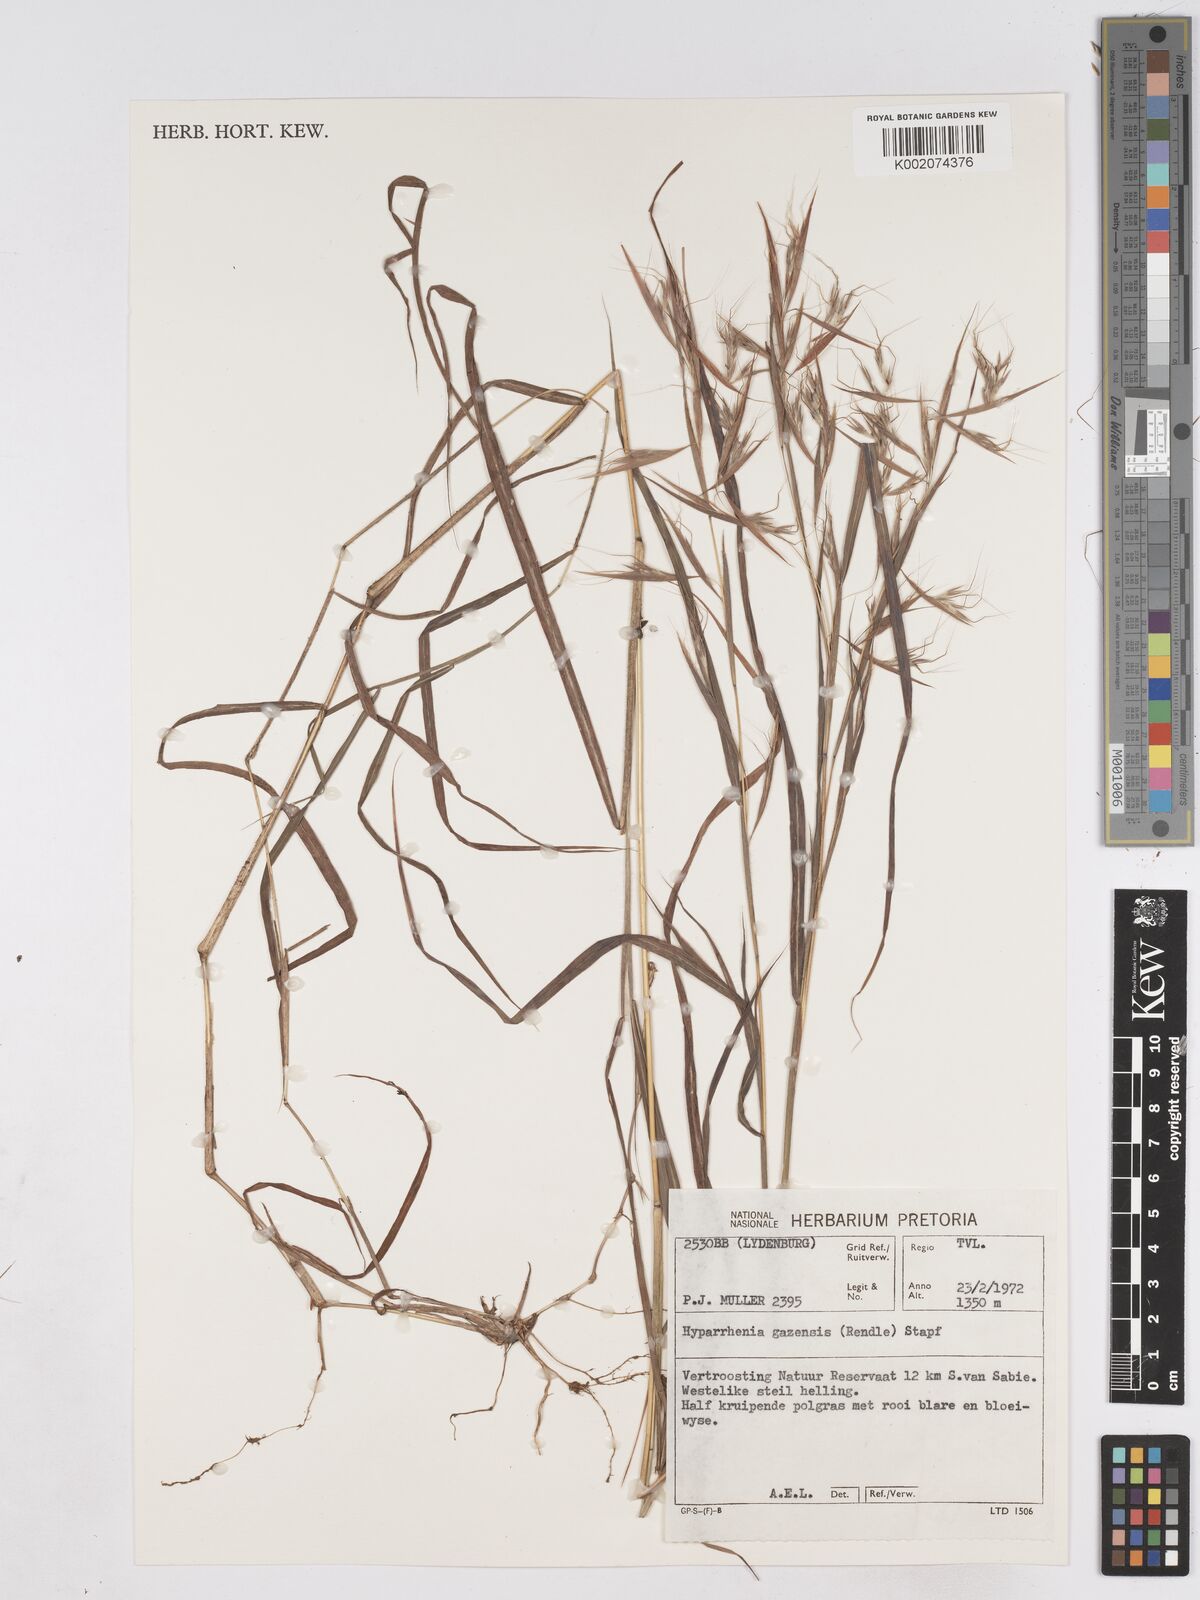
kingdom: Plantae
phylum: Tracheophyta
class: Liliopsida
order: Poales
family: Poaceae
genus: Hyparrhenia
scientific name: Hyparrhenia gazensis
